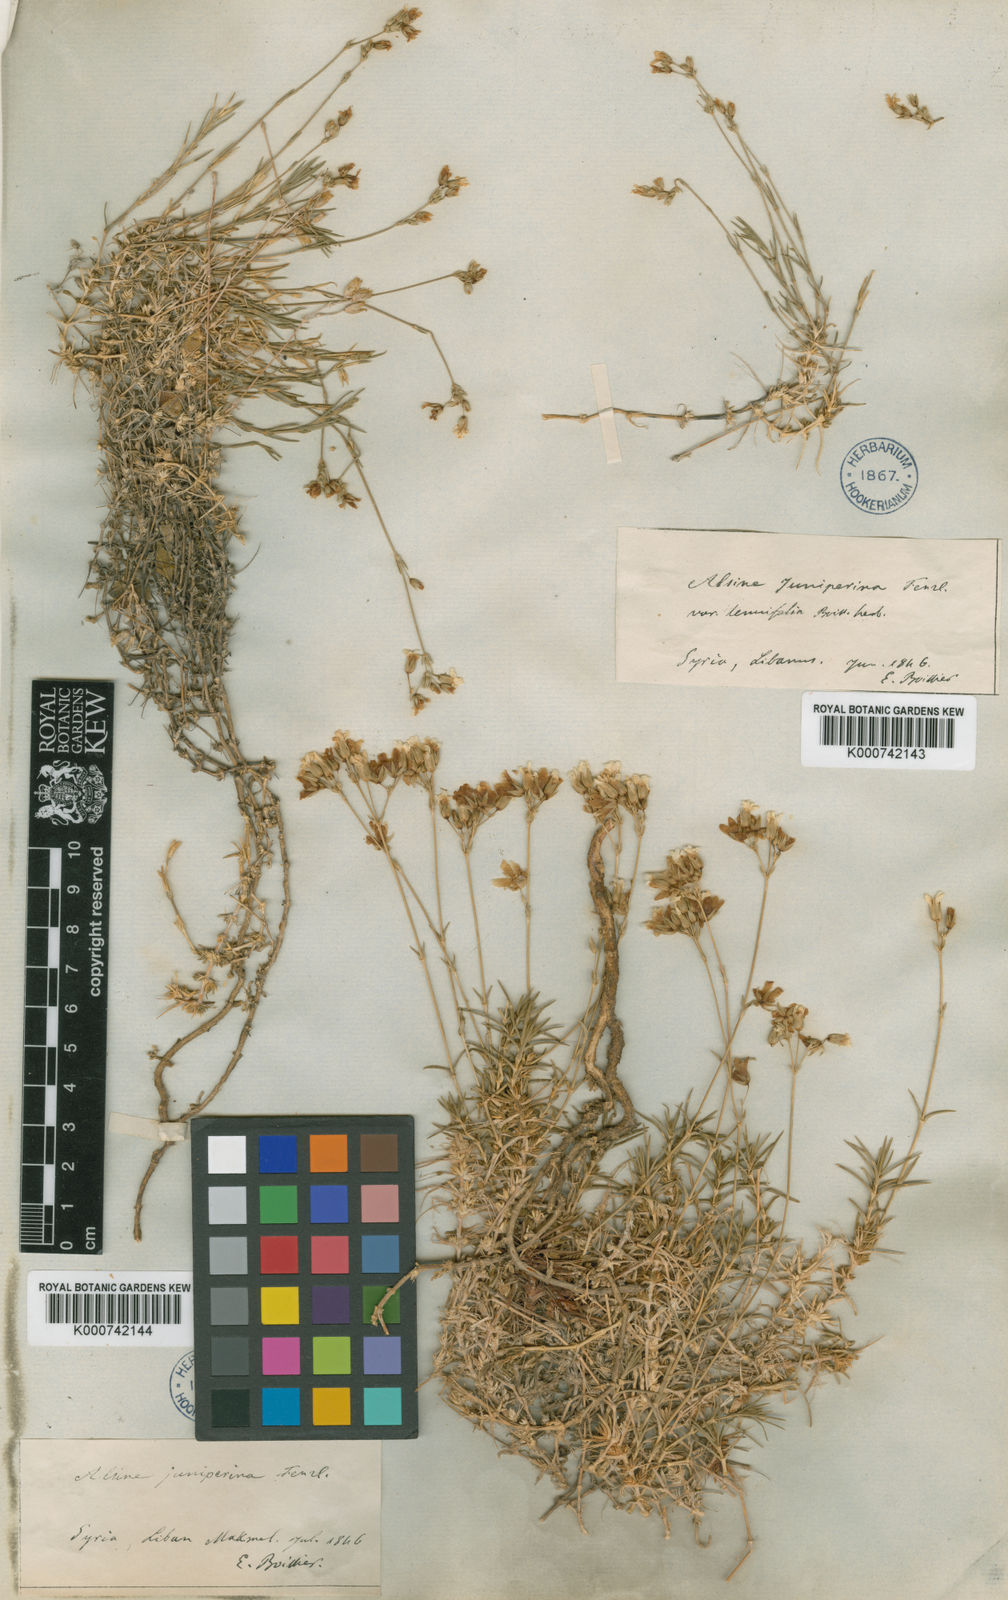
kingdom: Plantae
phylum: Tracheophyta
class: Magnoliopsida
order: Caryophyllales
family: Caryophyllaceae
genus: Minuartia
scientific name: Minuartia
